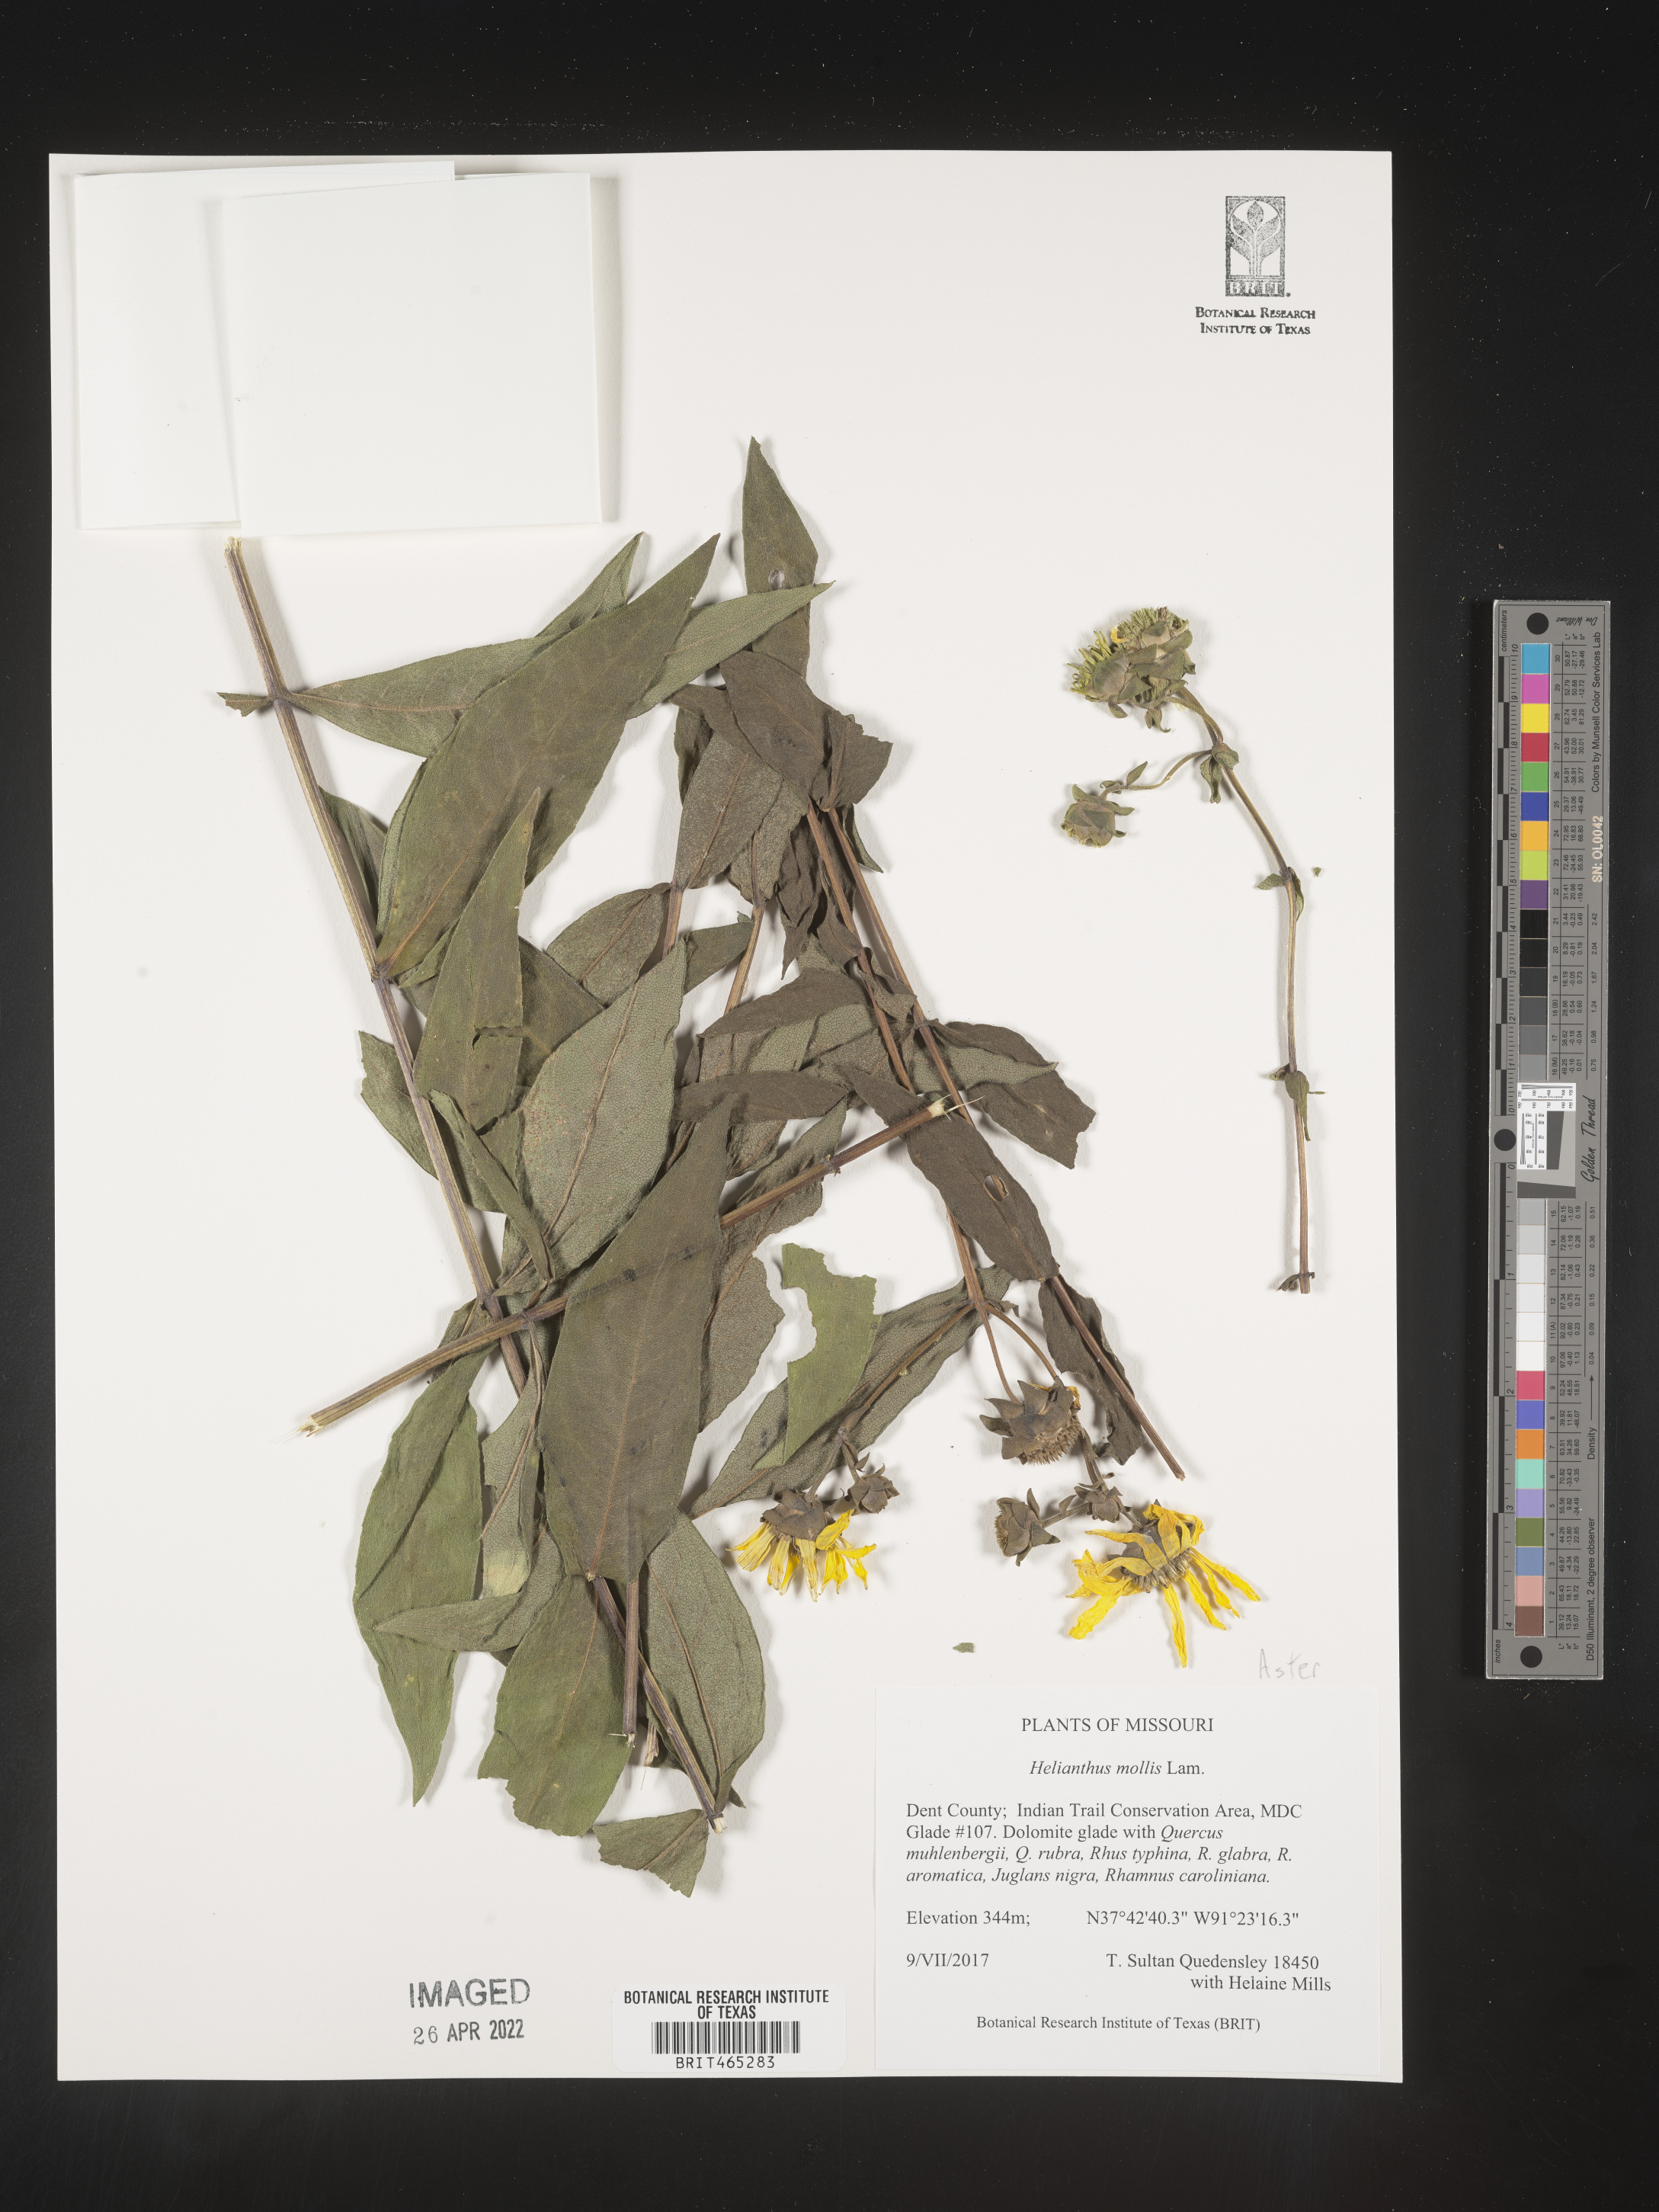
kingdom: Plantae
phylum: Tracheophyta
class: Magnoliopsida
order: Asterales
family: Asteraceae
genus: Helianthus
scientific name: Helianthus mollis
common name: Ashy sunflower
